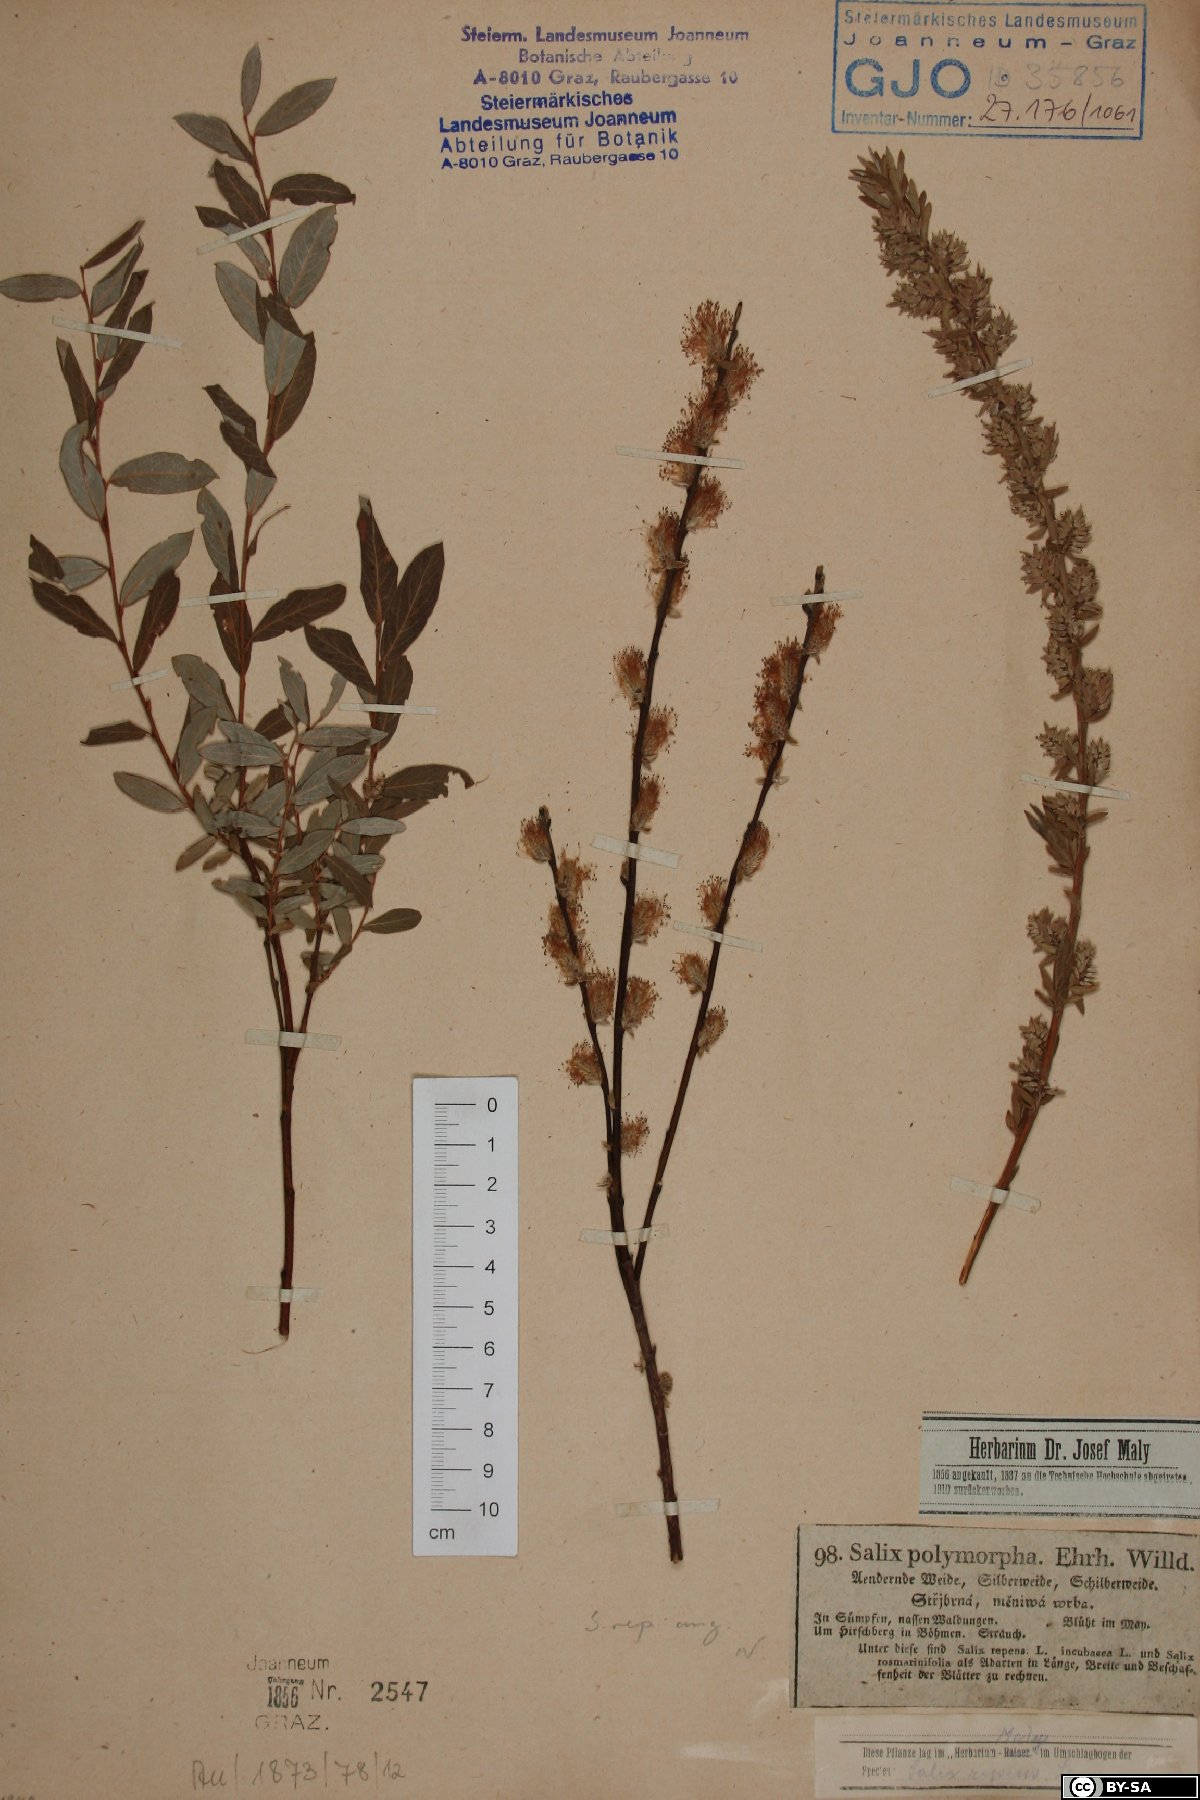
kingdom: Plantae
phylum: Tracheophyta
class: Magnoliopsida
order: Malpighiales
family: Salicaceae
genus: Salix
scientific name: Salix rosmarinifolia
